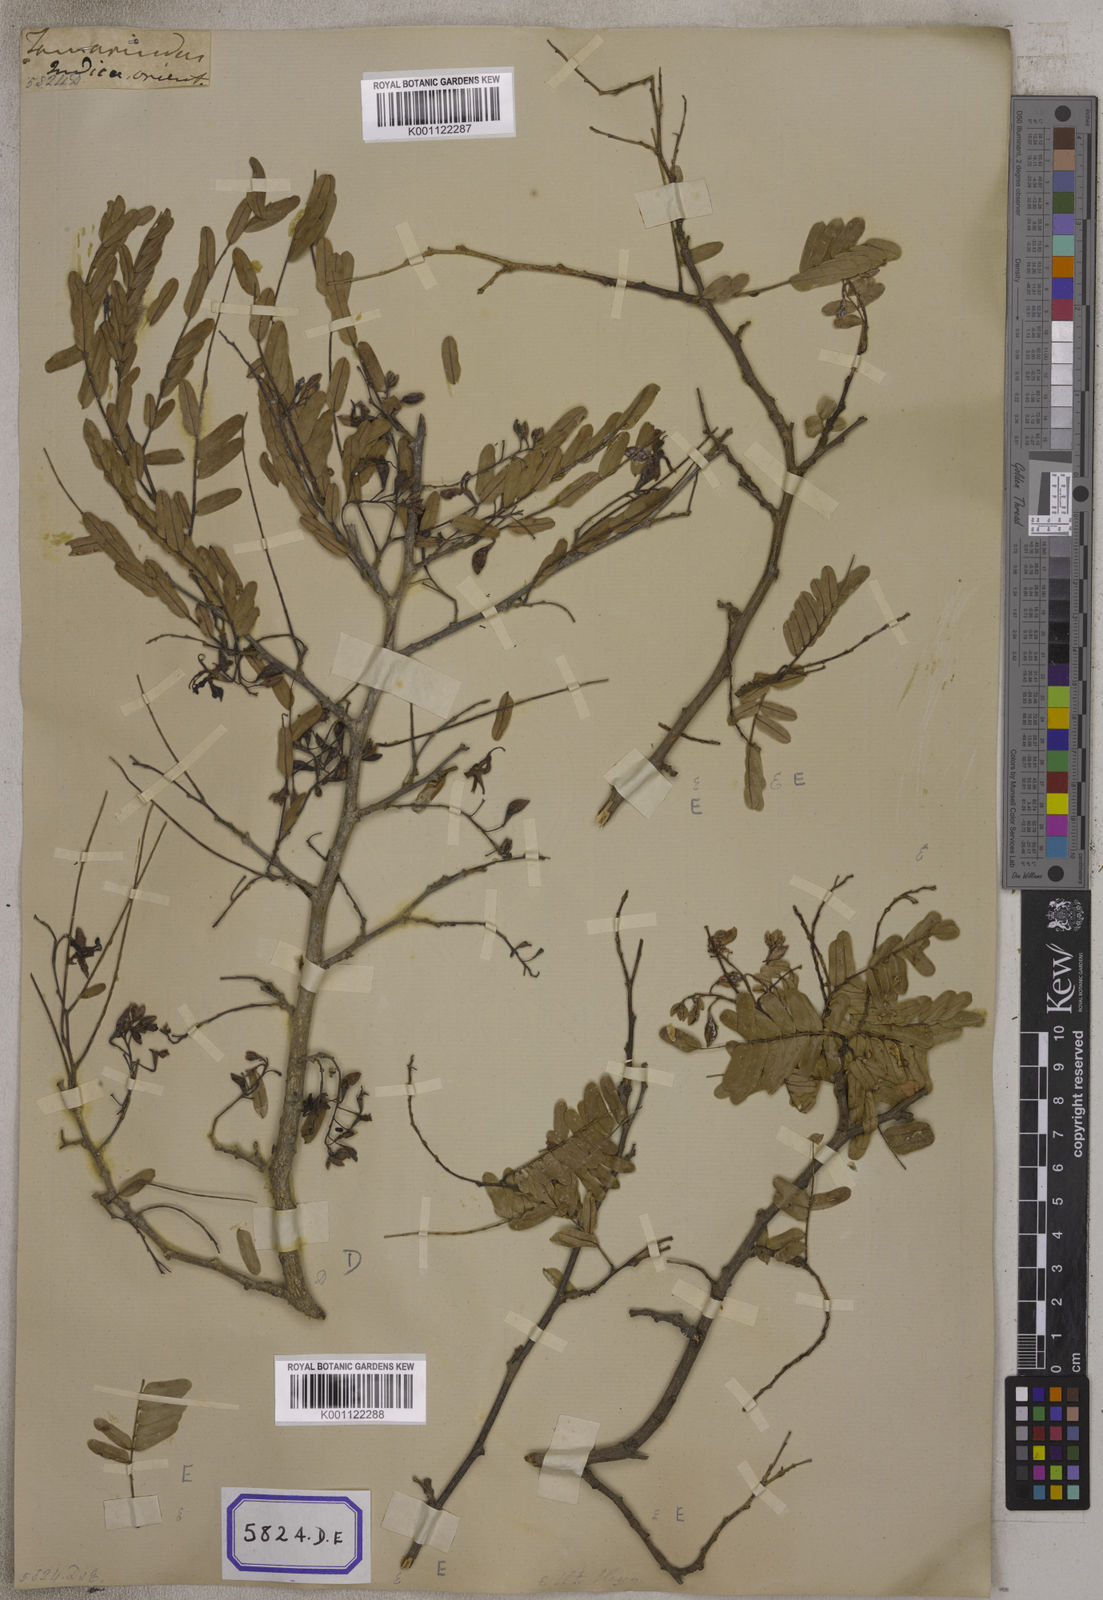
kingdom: Plantae
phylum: Tracheophyta
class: Magnoliopsida
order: Fabales
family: Fabaceae
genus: Tamarindus
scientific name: Tamarindus indica
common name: Tamarind
